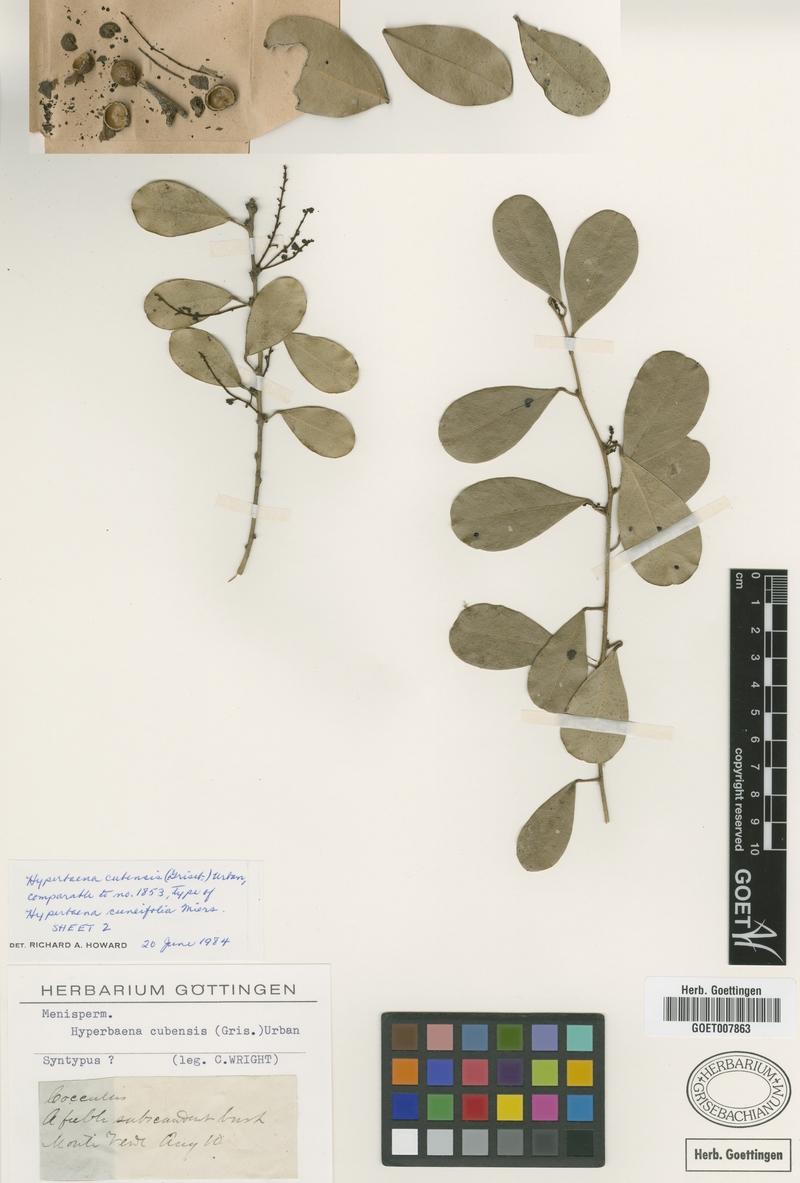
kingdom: Plantae
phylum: Tracheophyta
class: Magnoliopsida
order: Ranunculales
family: Menispermaceae
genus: Hyperbaena
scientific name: Hyperbaena cubensis
